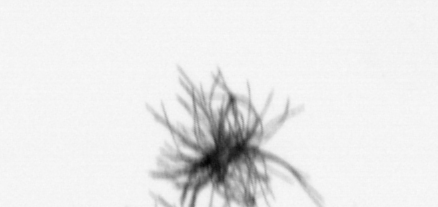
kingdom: Bacteria
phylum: Cyanobacteria
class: Cyanobacteriia
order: Cyanobacteriales
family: Microcoleaceae
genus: Trichodesmium
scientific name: Trichodesmium
